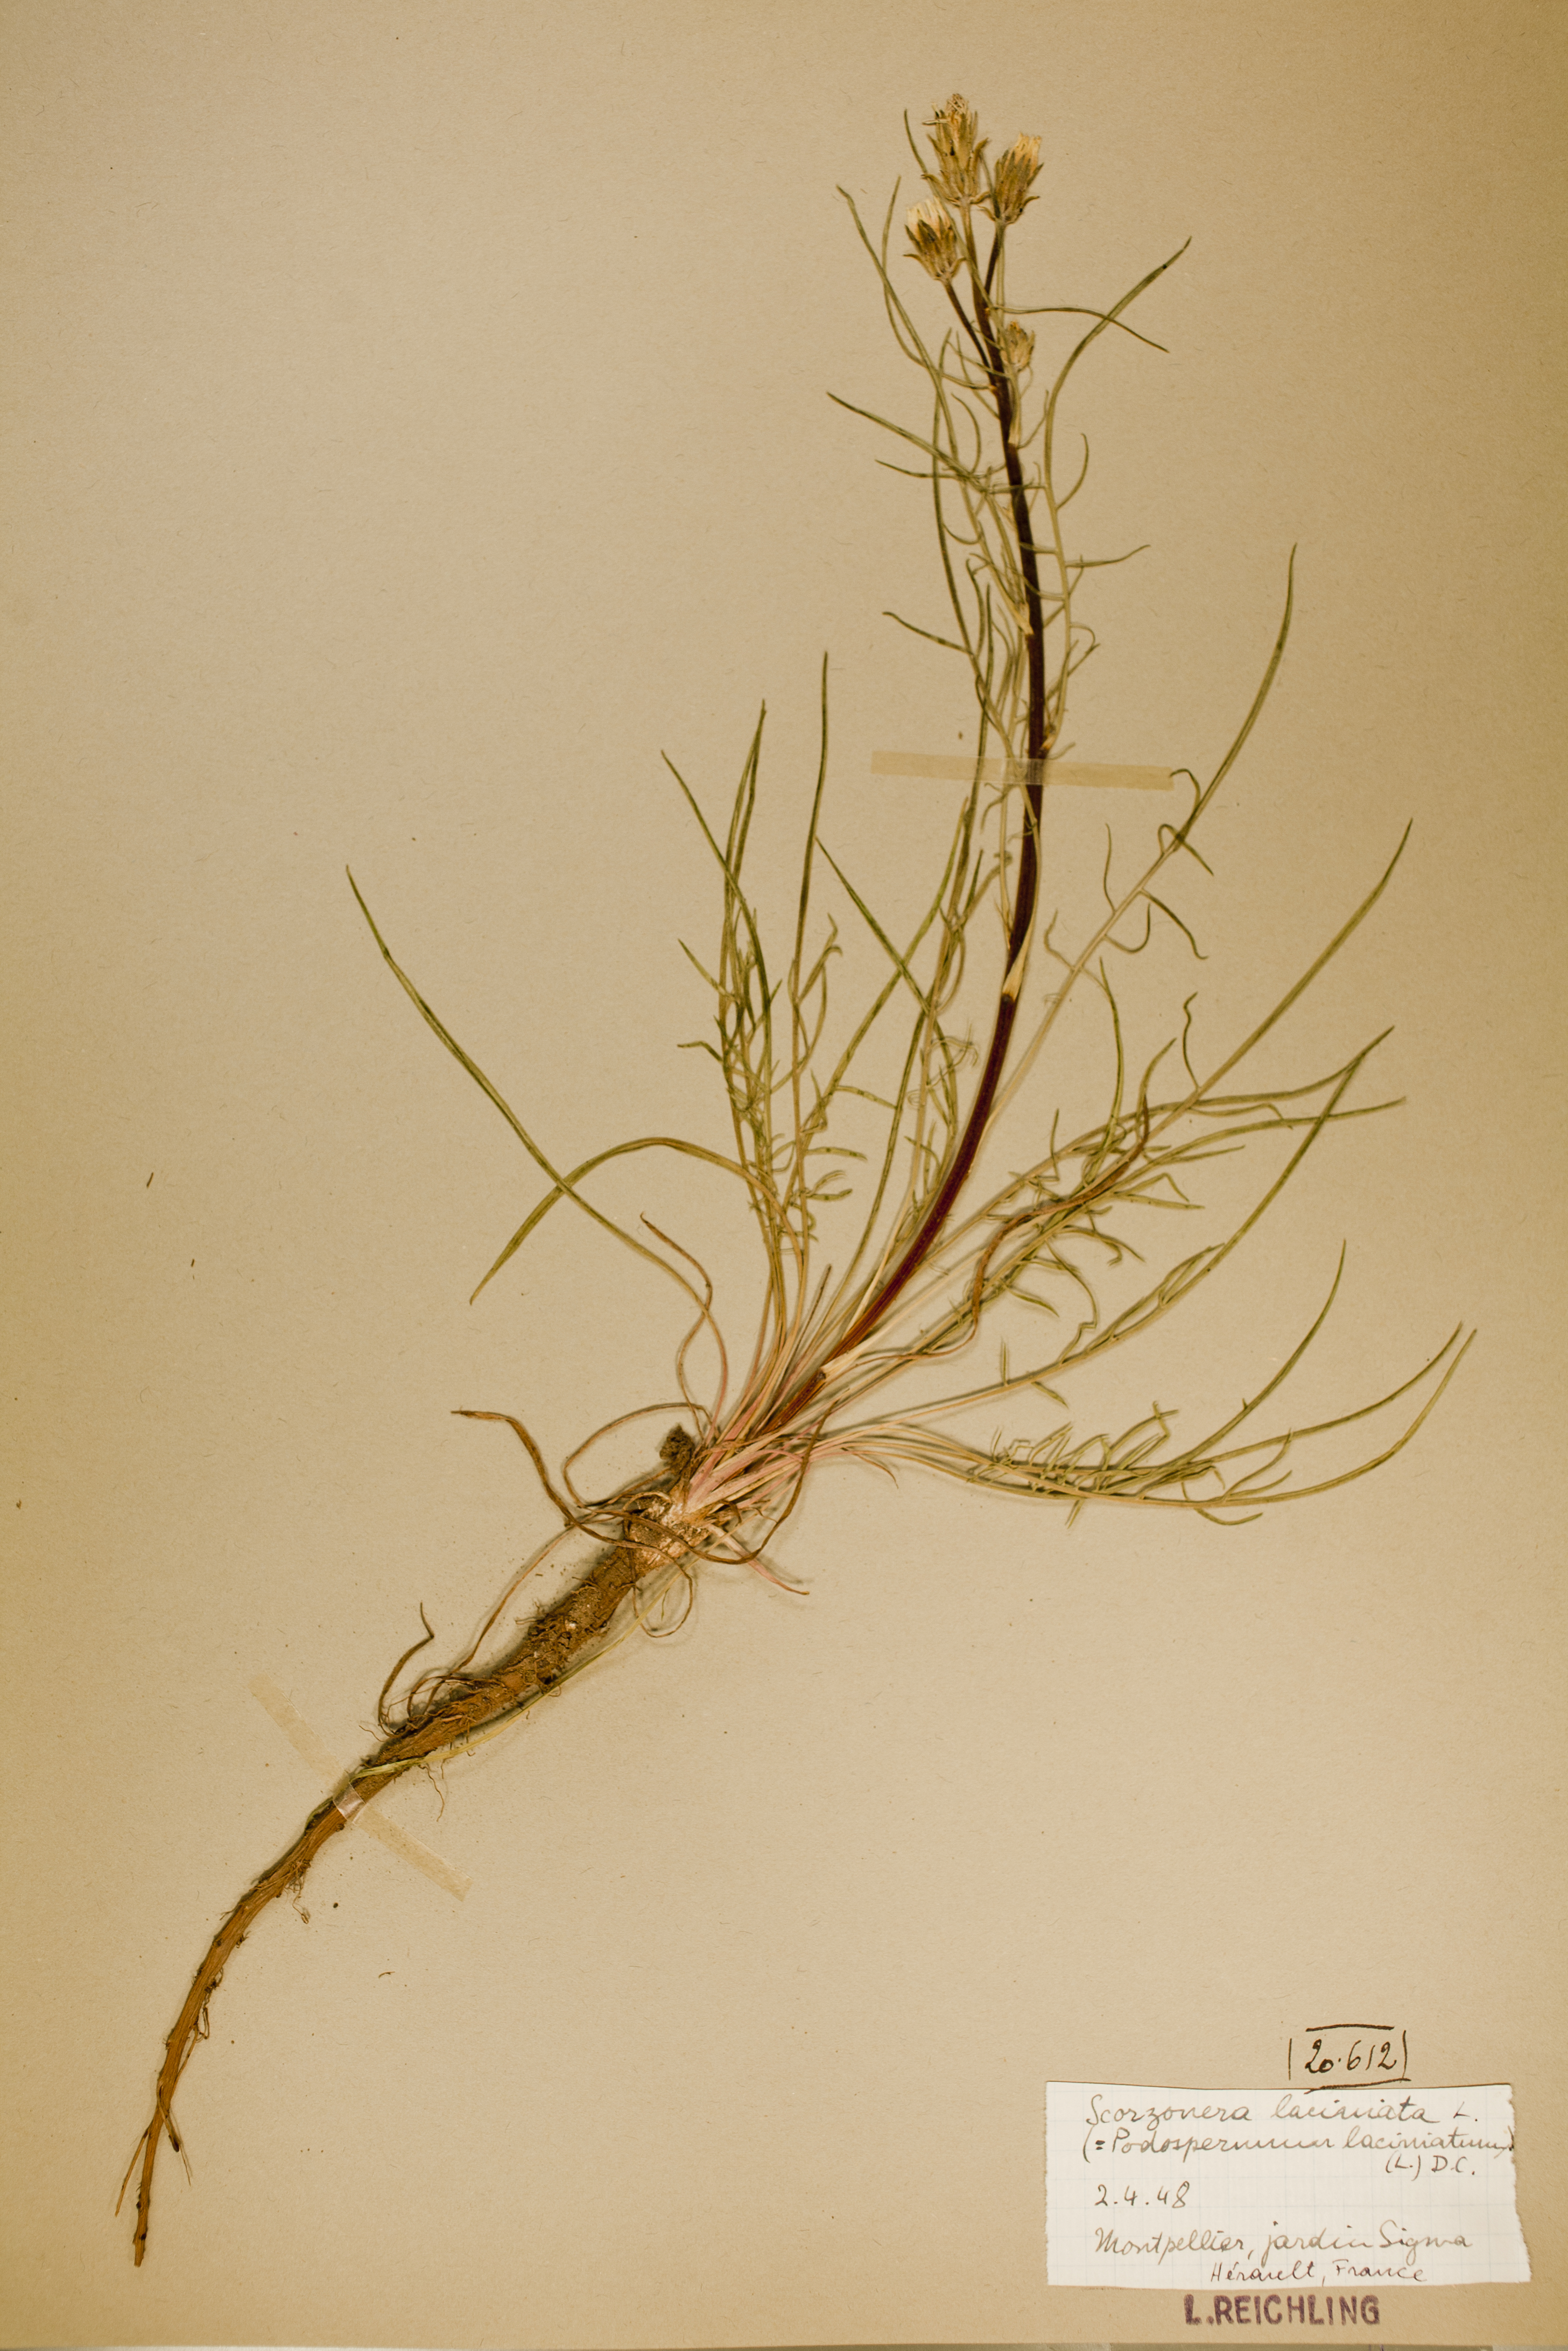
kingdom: Plantae
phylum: Tracheophyta
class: Magnoliopsida
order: Asterales
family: Asteraceae
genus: Scorzonera
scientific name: Scorzonera laciniata
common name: Cutleaf vipergrass
